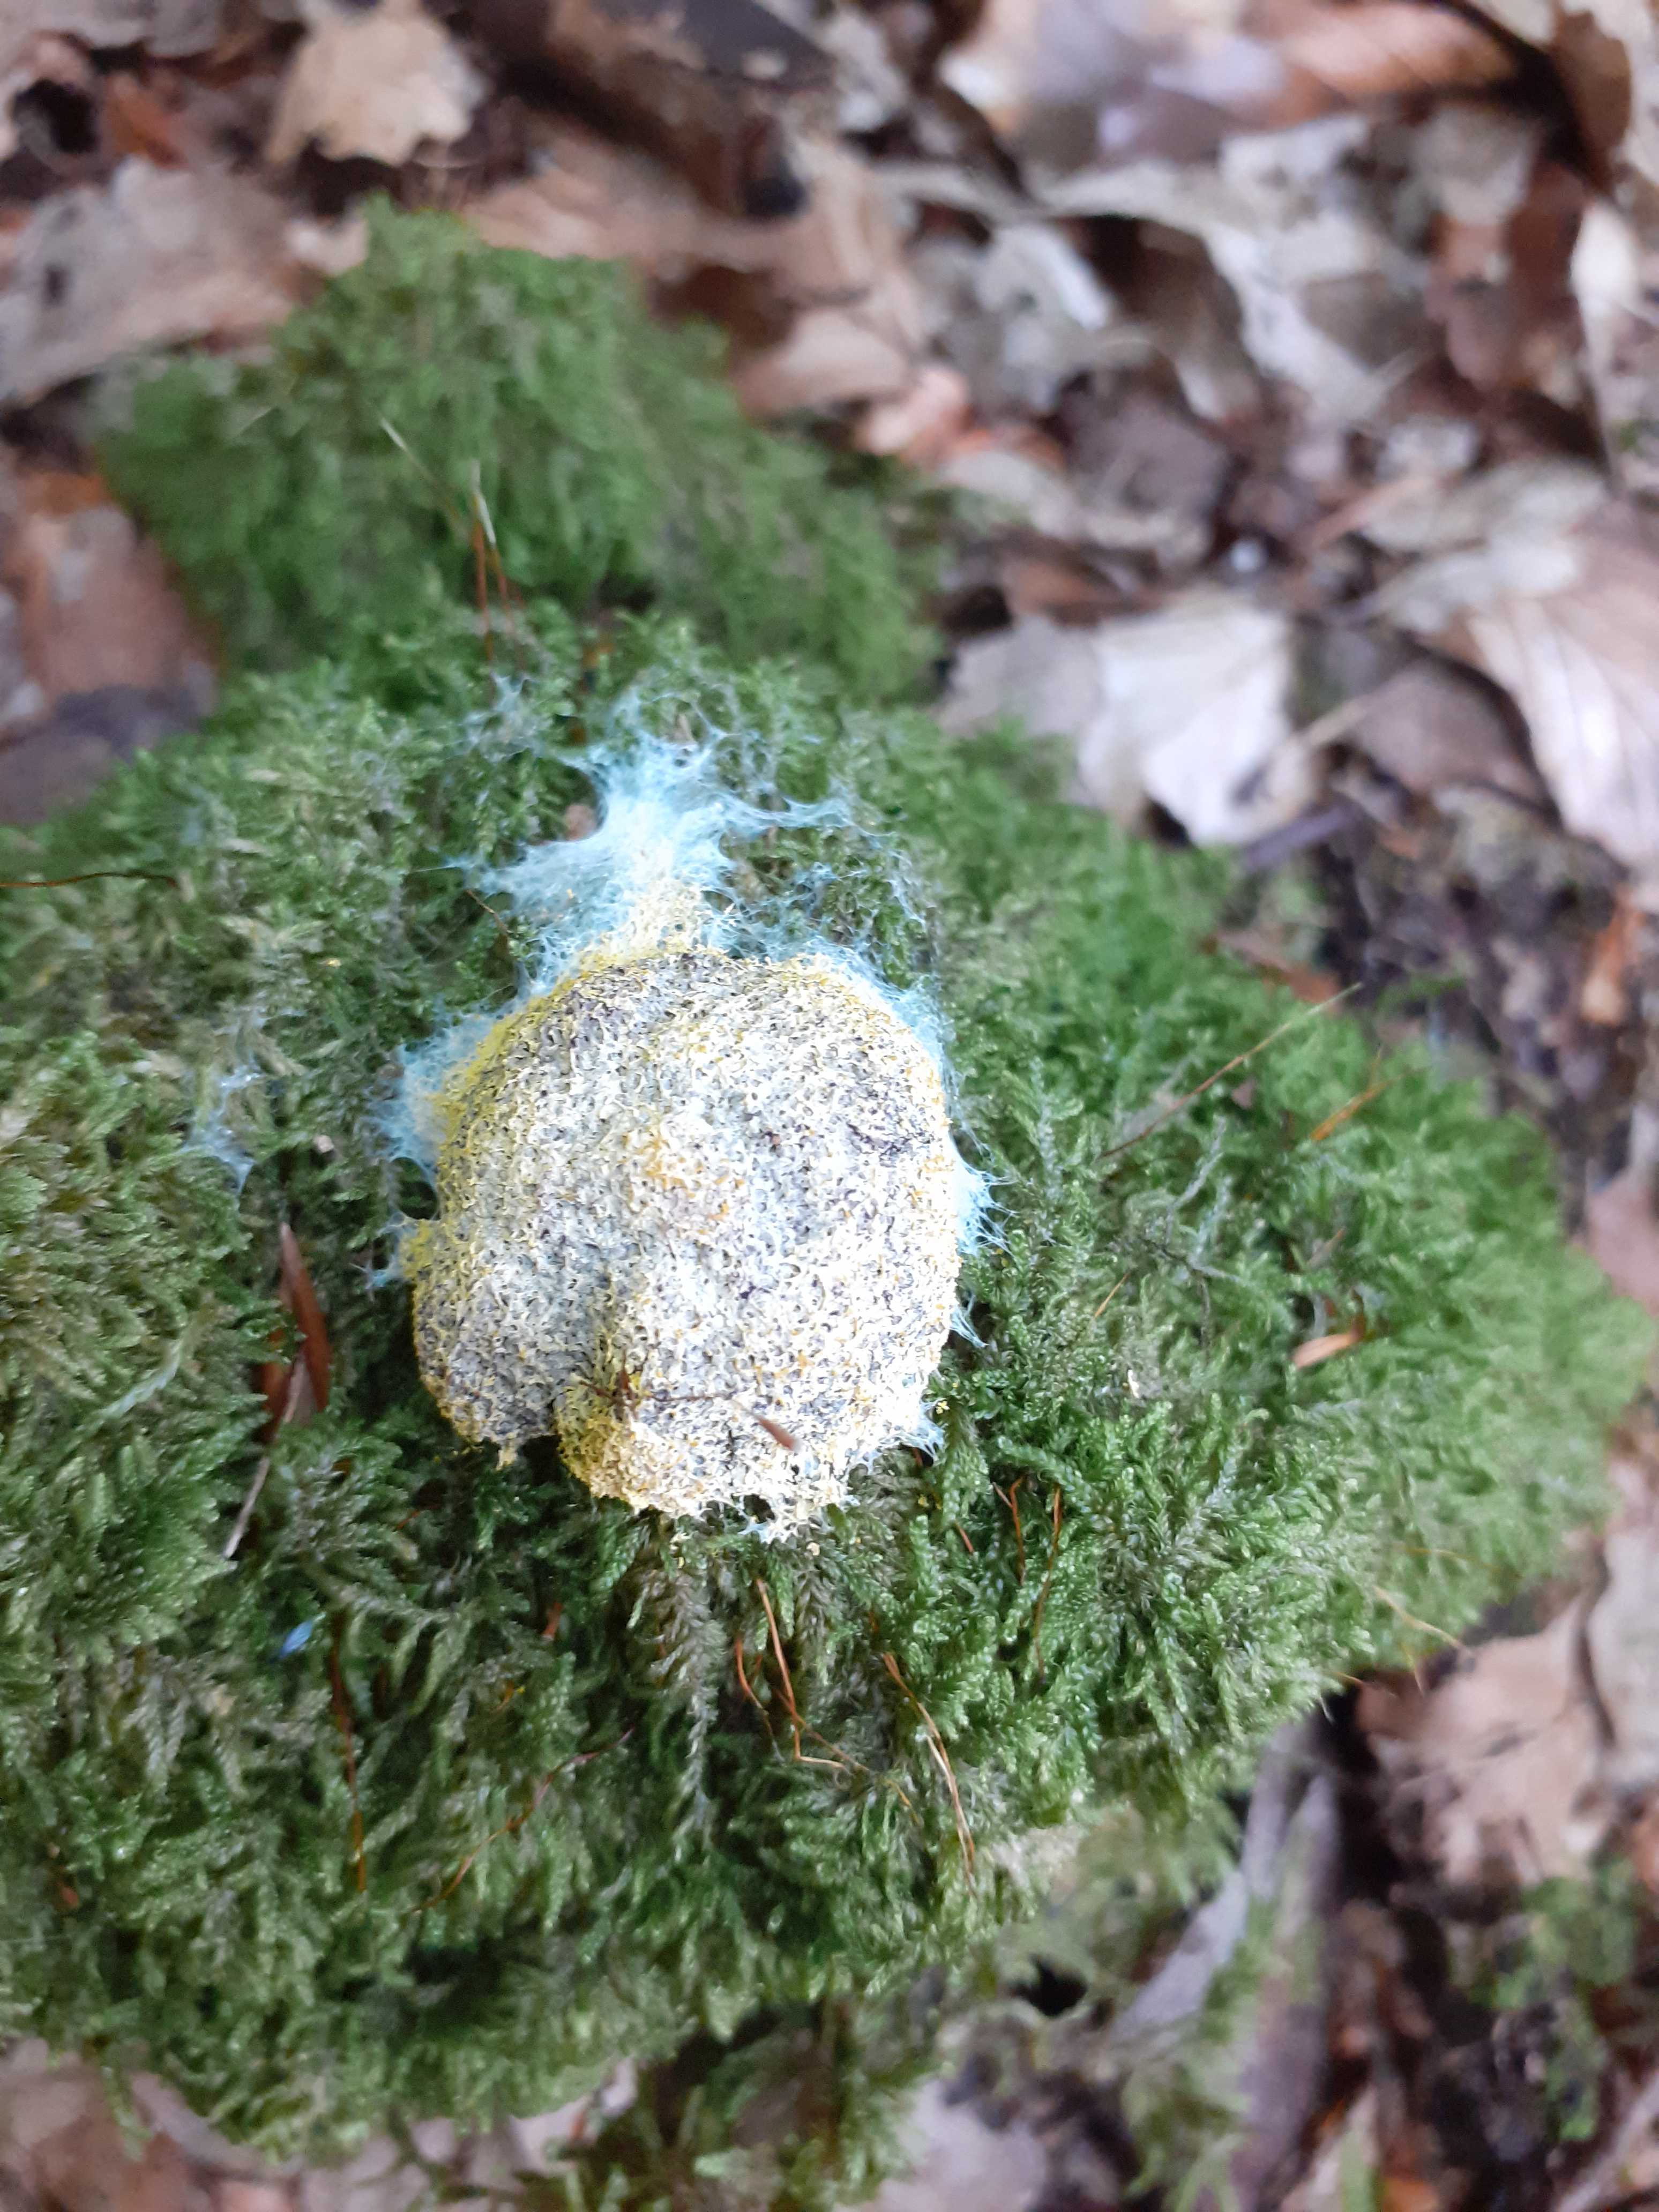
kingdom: Protozoa
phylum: Mycetozoa
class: Myxomycetes
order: Physarales
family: Physaraceae
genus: Fuligo
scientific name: Fuligo septica
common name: gul troldsmør
